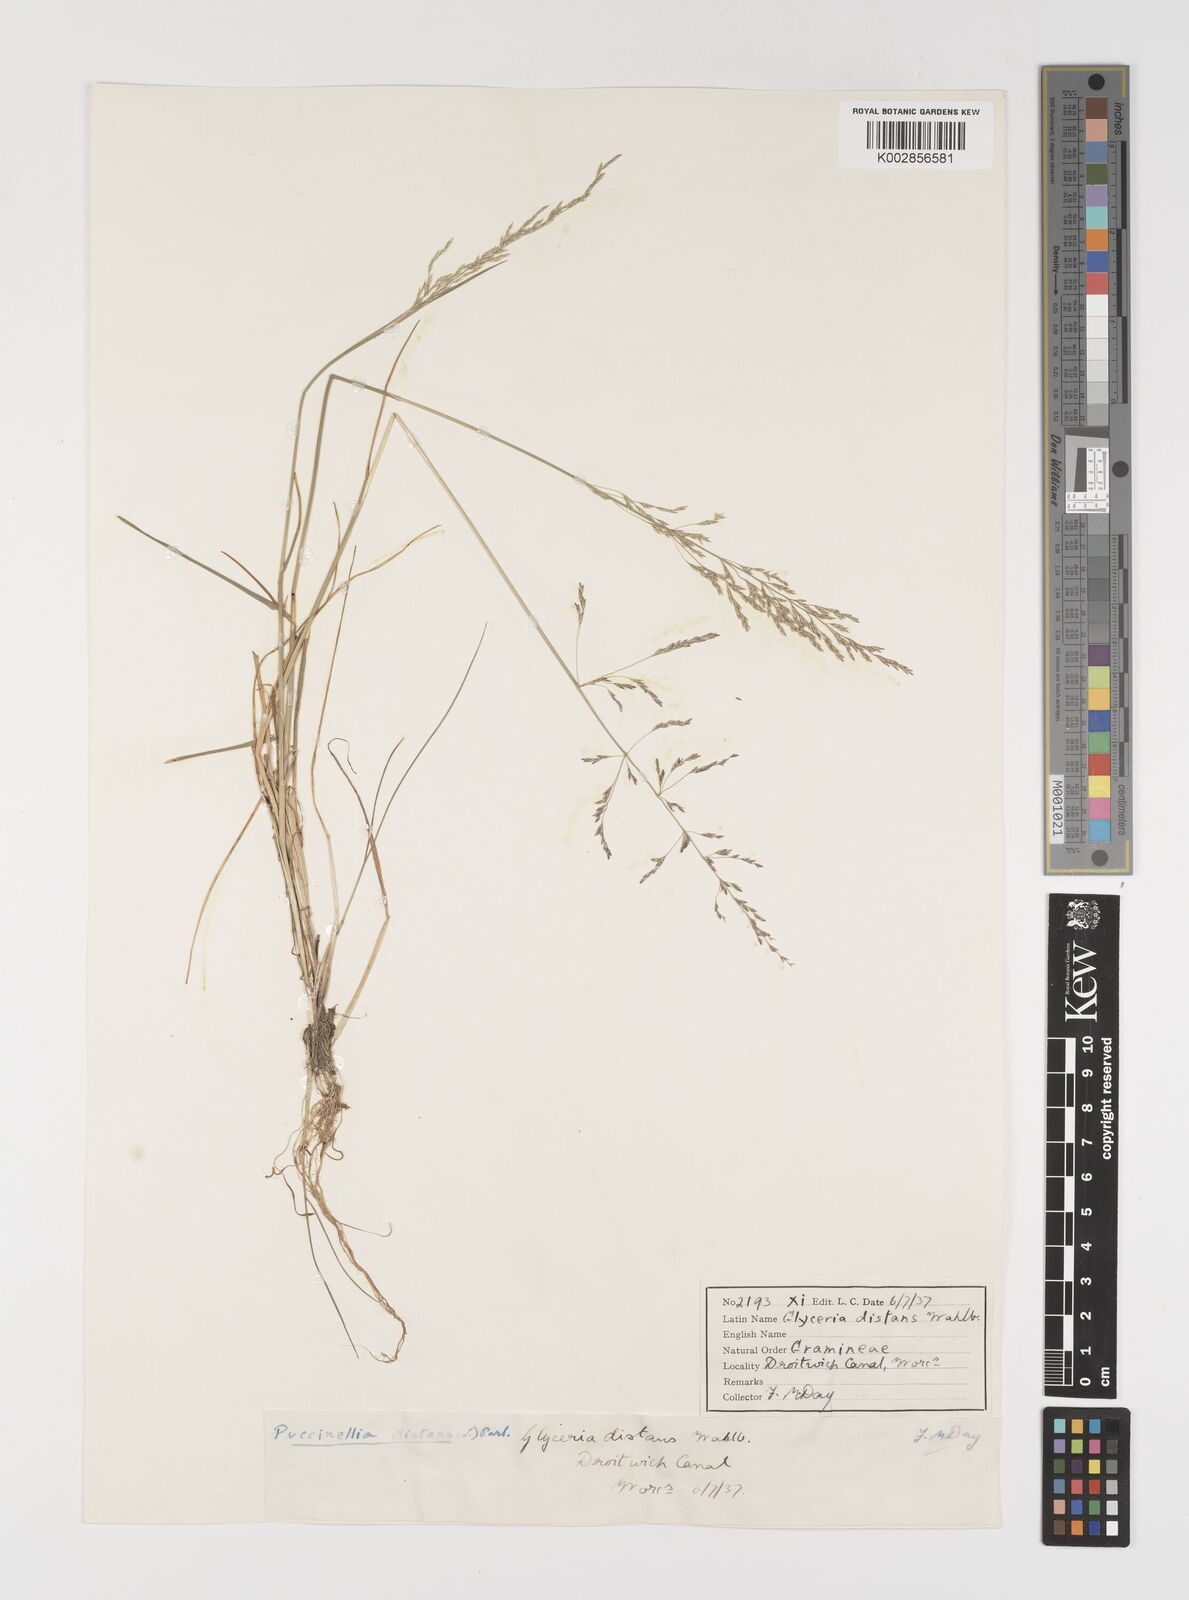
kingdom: Plantae
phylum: Tracheophyta
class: Liliopsida
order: Poales
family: Poaceae
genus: Puccinellia
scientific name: Puccinellia distans
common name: Weeping alkaligrass
